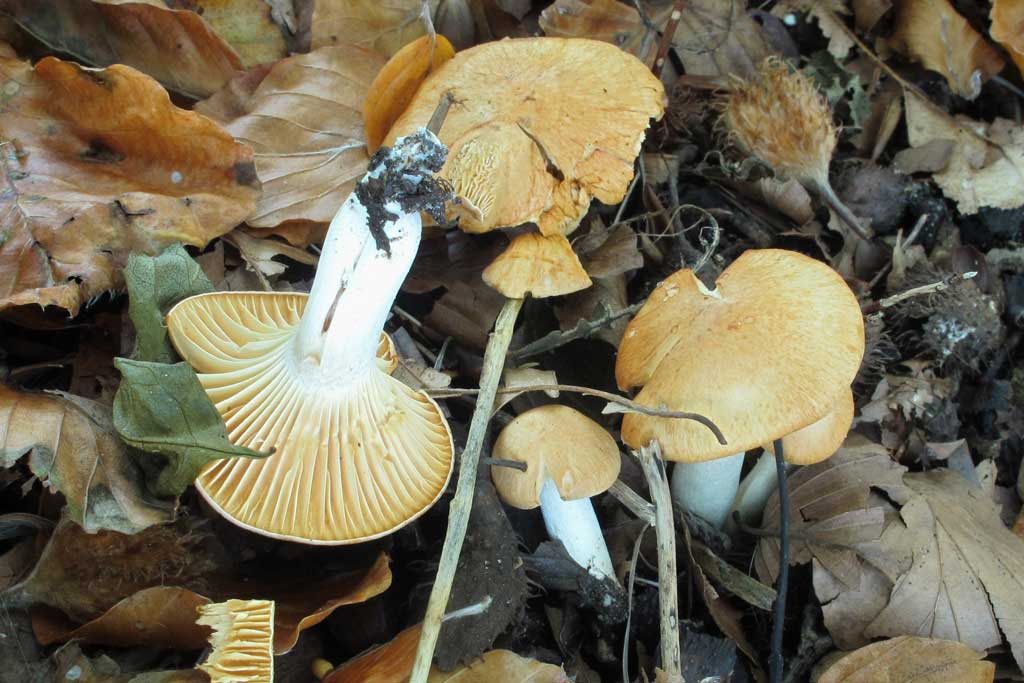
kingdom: Fungi
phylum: Basidiomycota
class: Agaricomycetes
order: Agaricales
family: Hygrophoraceae
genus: Cuphophyllus
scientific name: Cuphophyllus pratensis
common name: eng-vokshat
